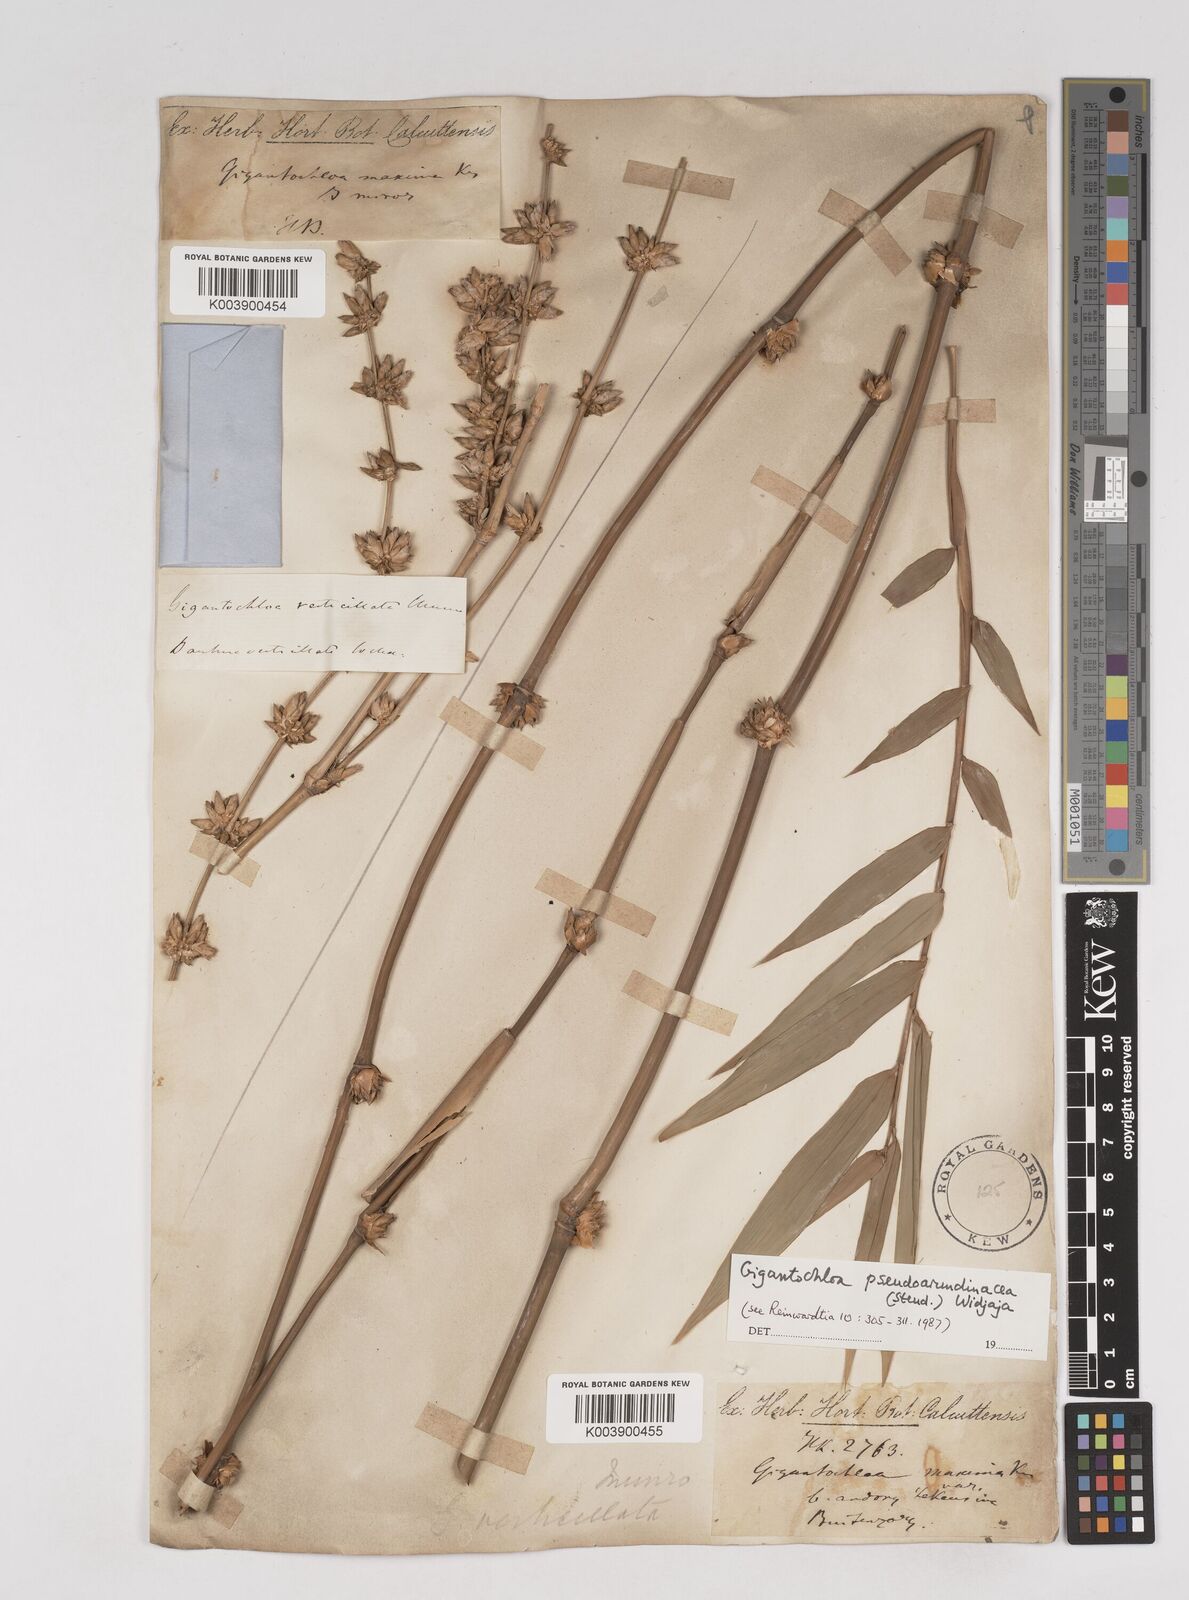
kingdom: Plantae
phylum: Tracheophyta
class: Liliopsida
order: Poales
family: Poaceae
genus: Gigantochloa
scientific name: Gigantochloa verticillata
